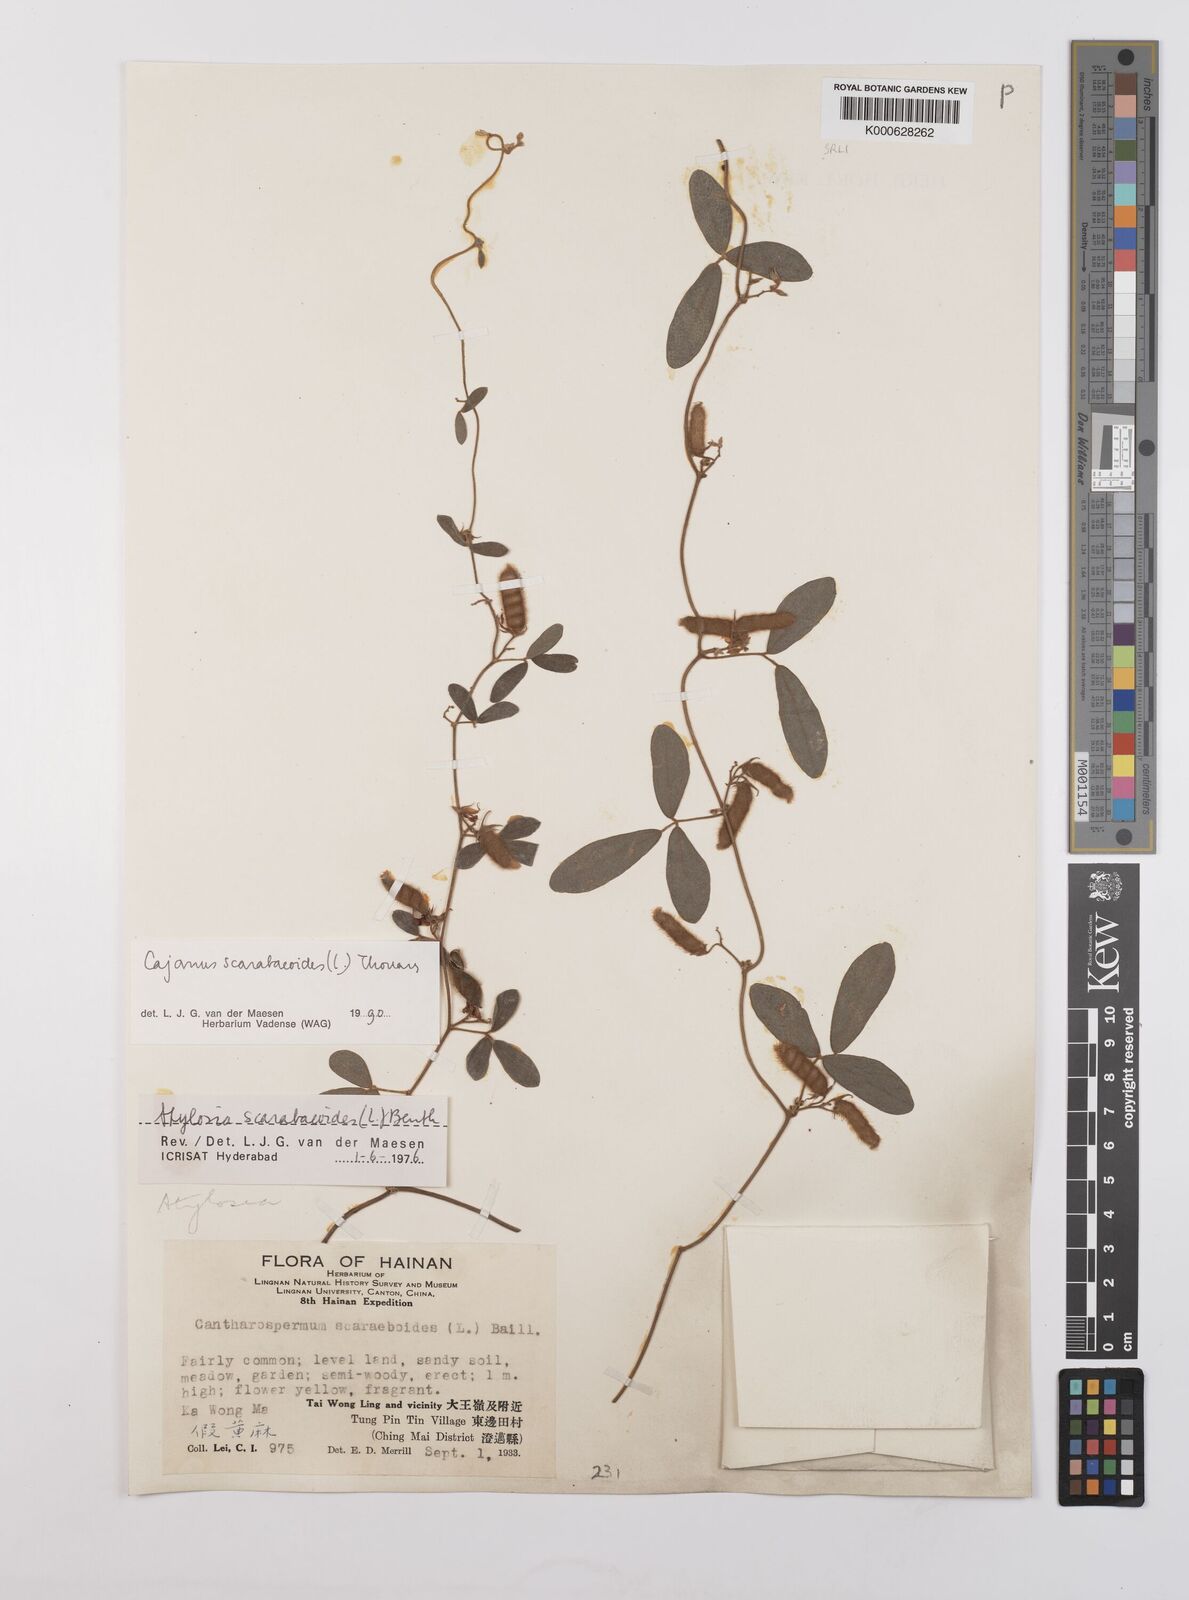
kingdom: Plantae
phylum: Tracheophyta
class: Magnoliopsida
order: Fabales
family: Fabaceae
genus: Cajanus
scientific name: Cajanus scarabaeoides
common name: Showy pigeonpea
